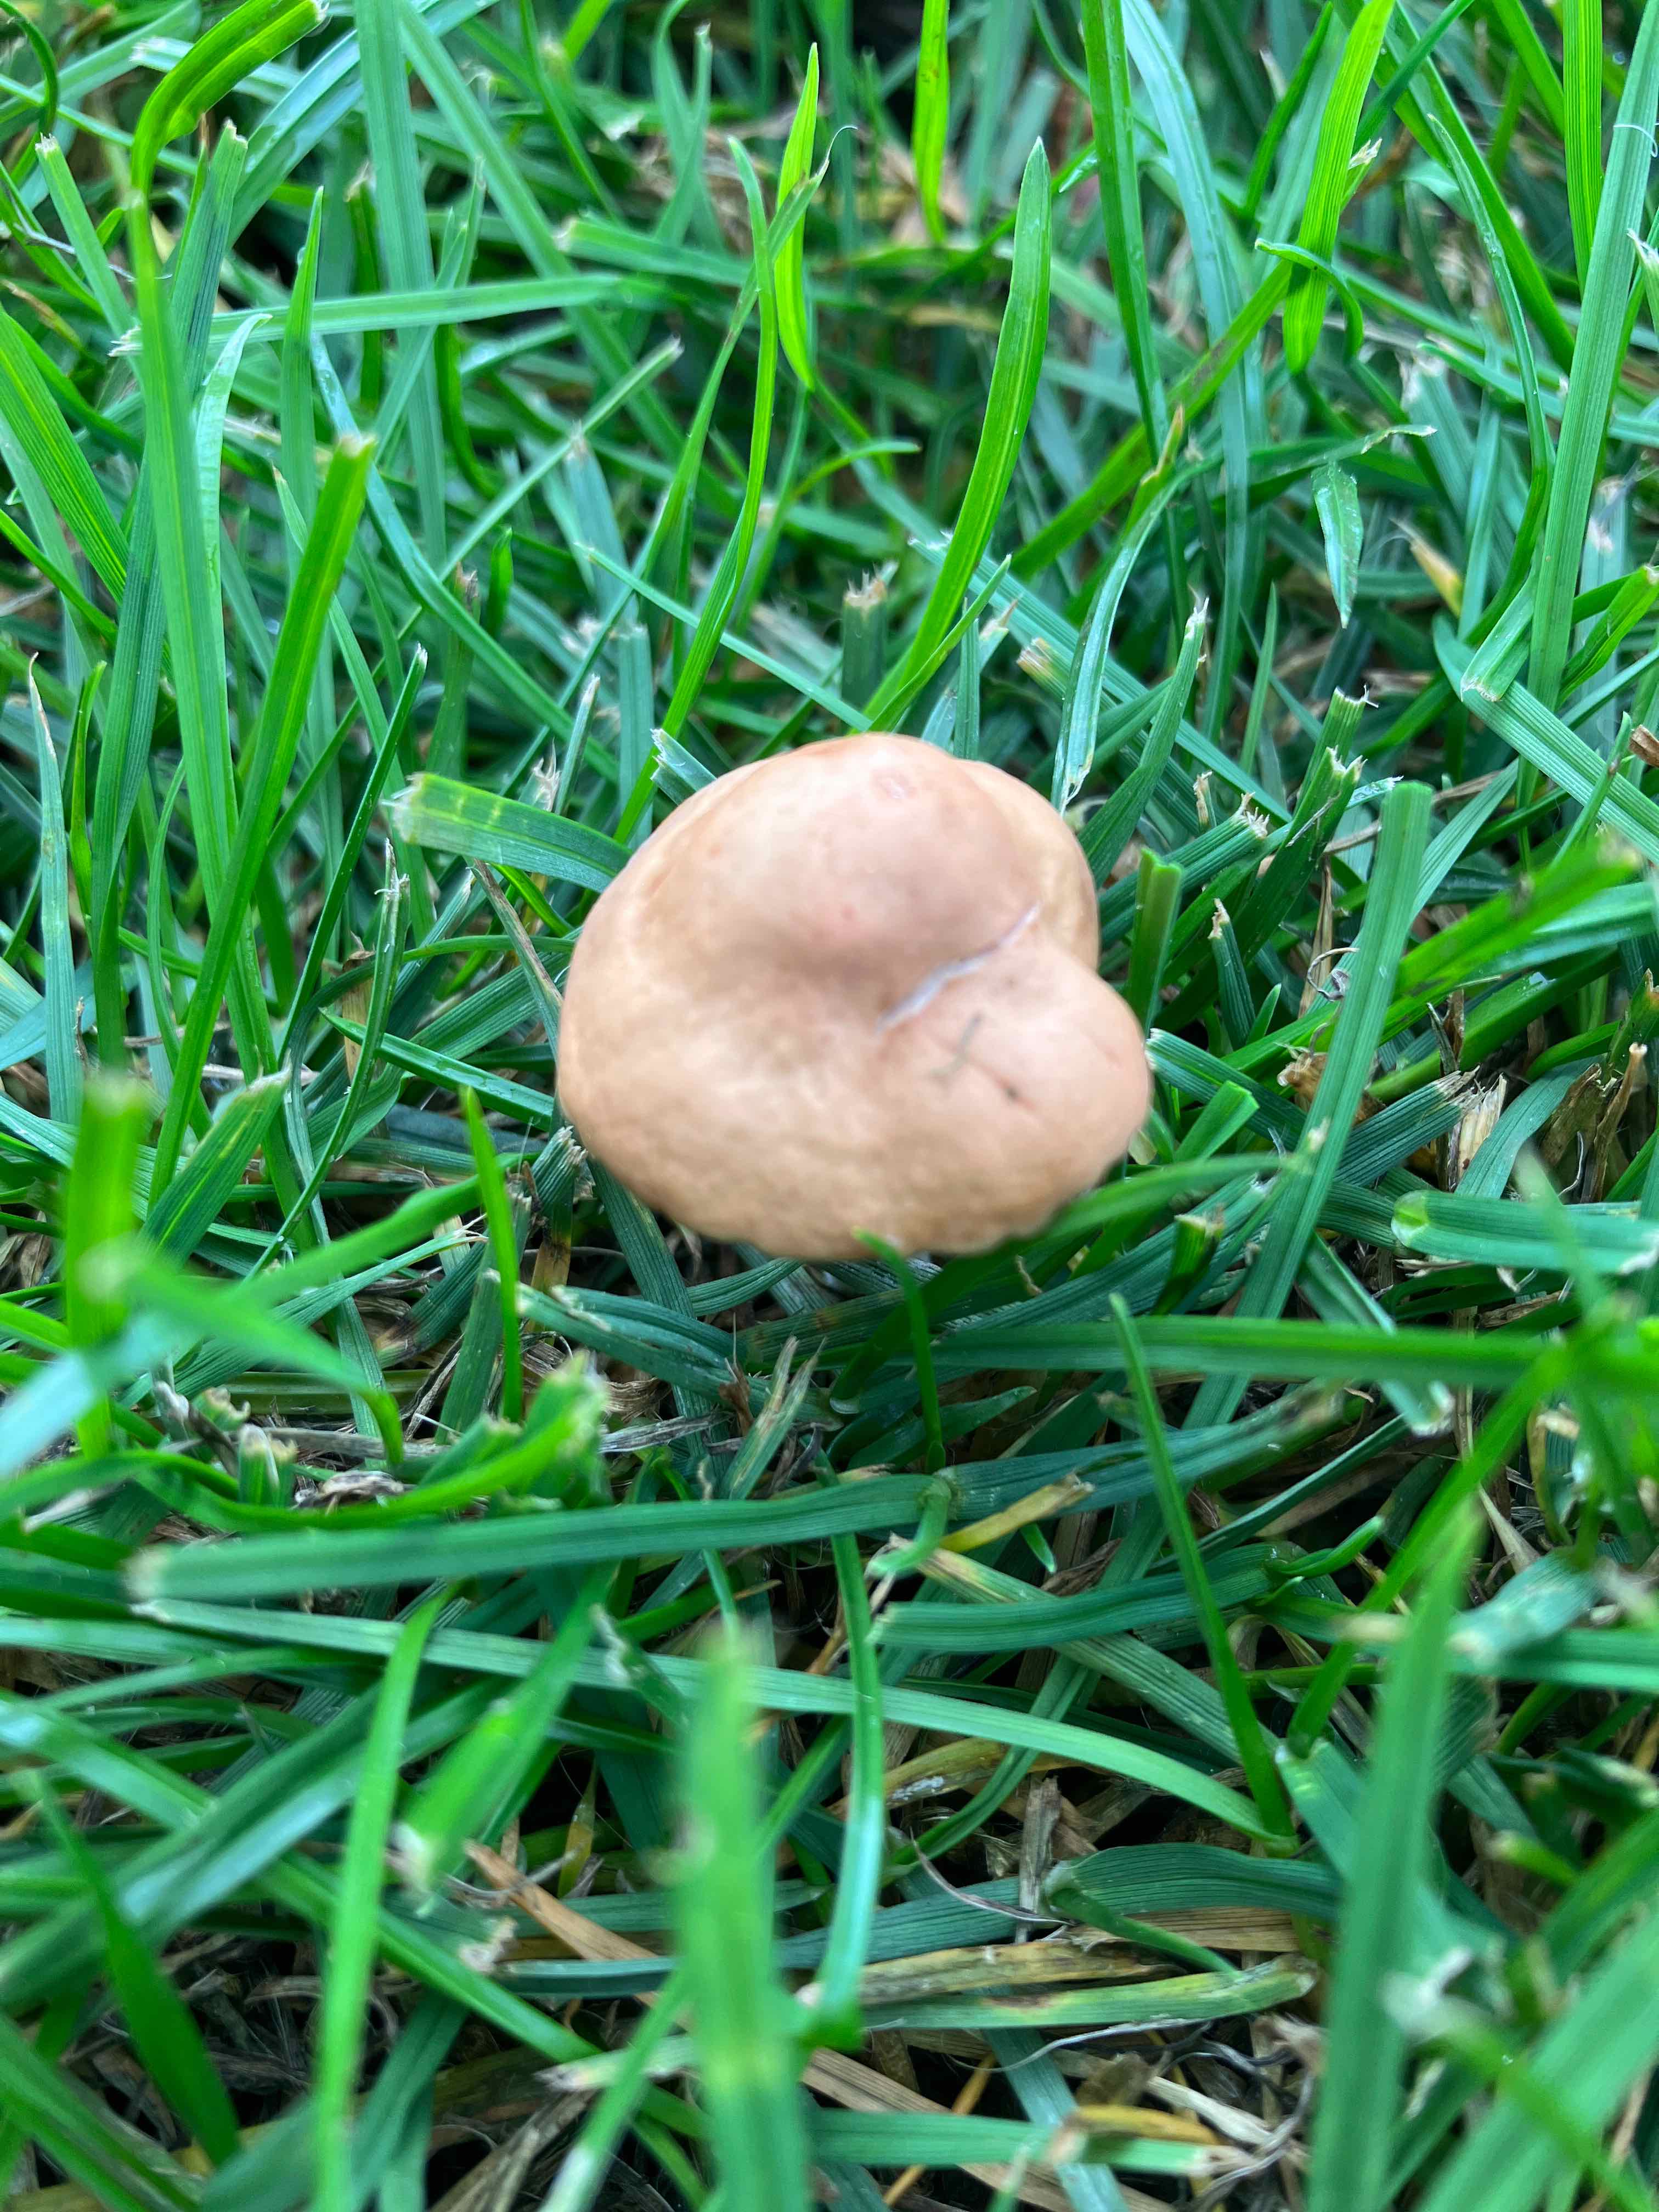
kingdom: Fungi
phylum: Basidiomycota
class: Agaricomycetes
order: Agaricales
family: Marasmiaceae
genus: Marasmius
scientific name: Marasmius oreades
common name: elledans-bruskhat
